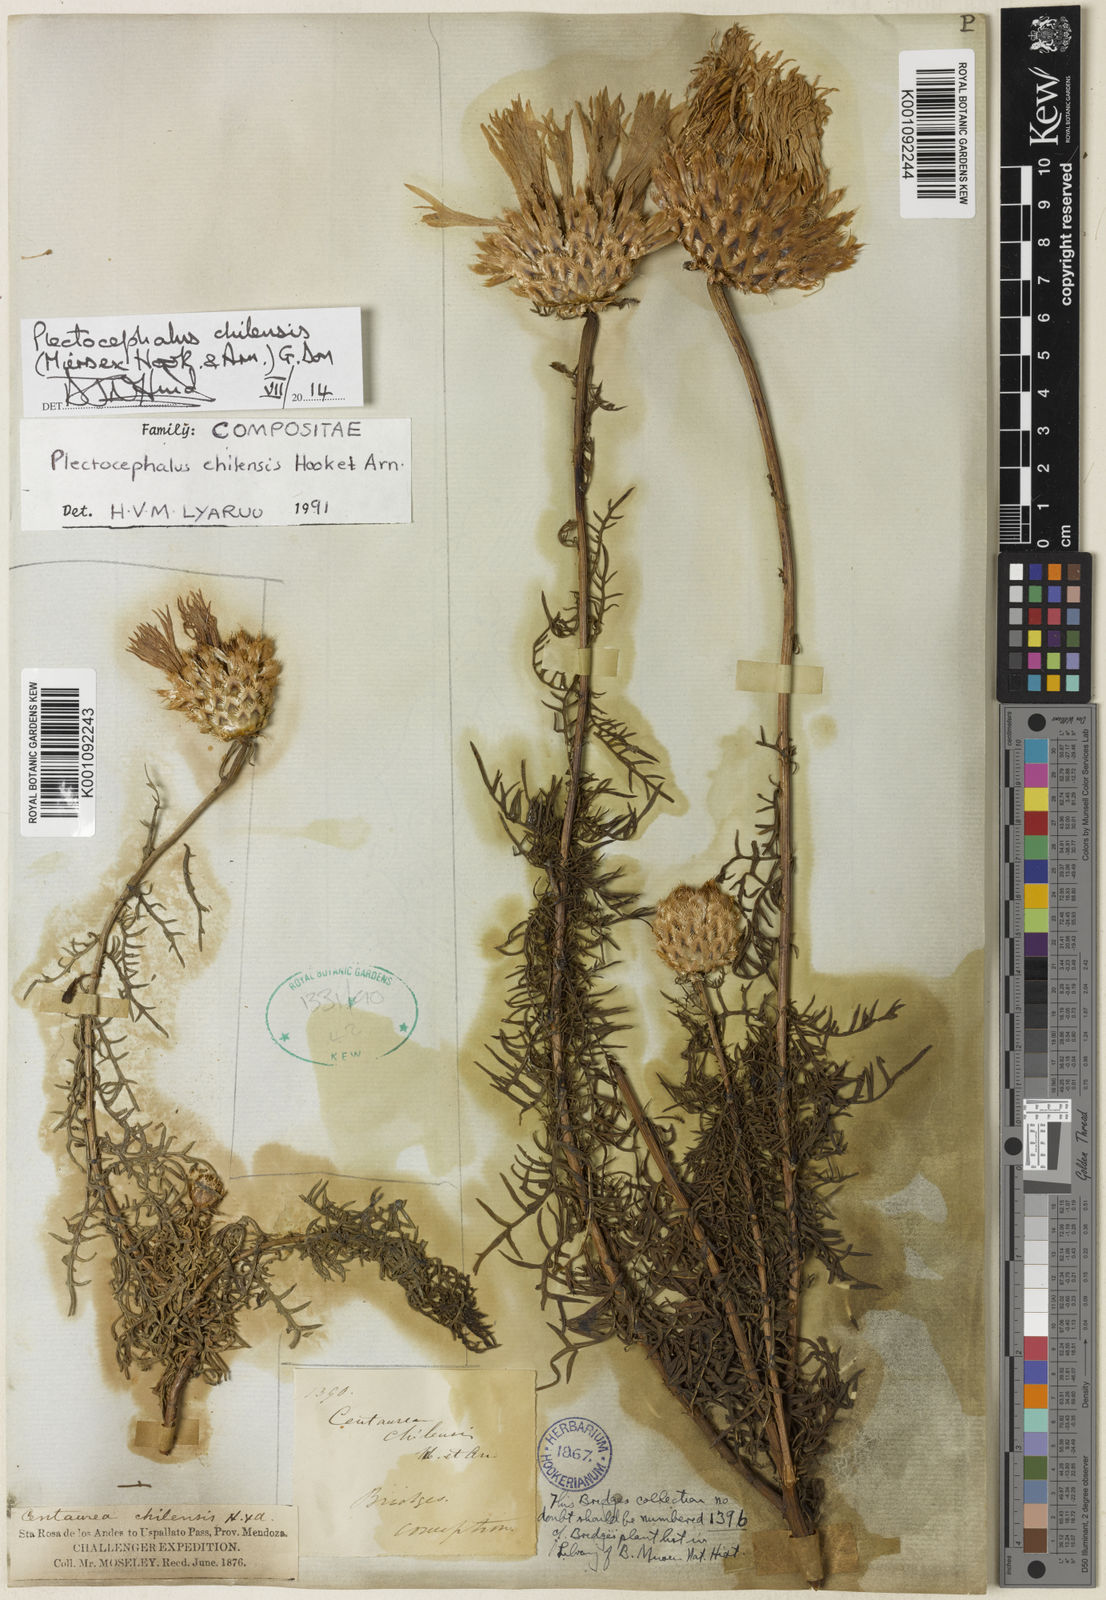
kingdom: Plantae
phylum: Tracheophyta
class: Magnoliopsida
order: Asterales
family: Asteraceae
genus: Plectocephalus
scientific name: Plectocephalus chilensis
